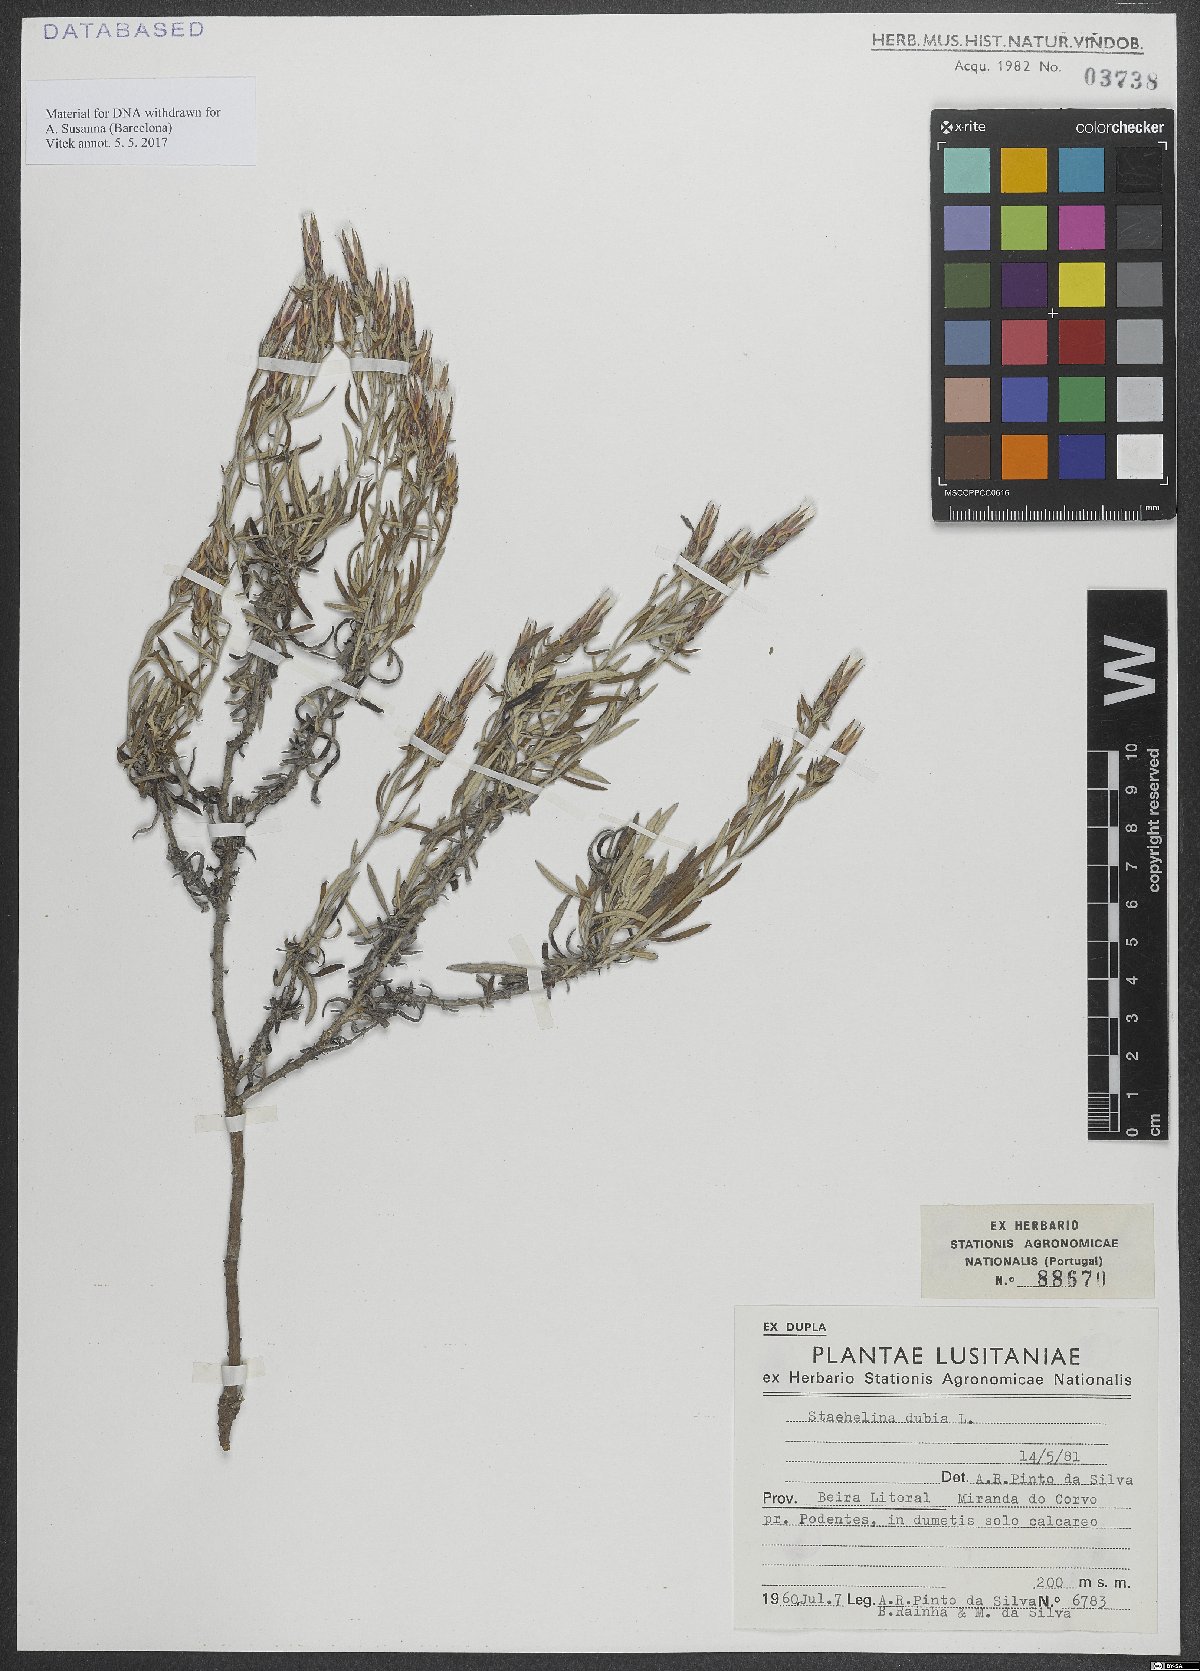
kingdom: Plantae
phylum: Tracheophyta
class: Magnoliopsida
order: Asterales
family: Asteraceae
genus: Staehelina
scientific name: Staehelina dubia
